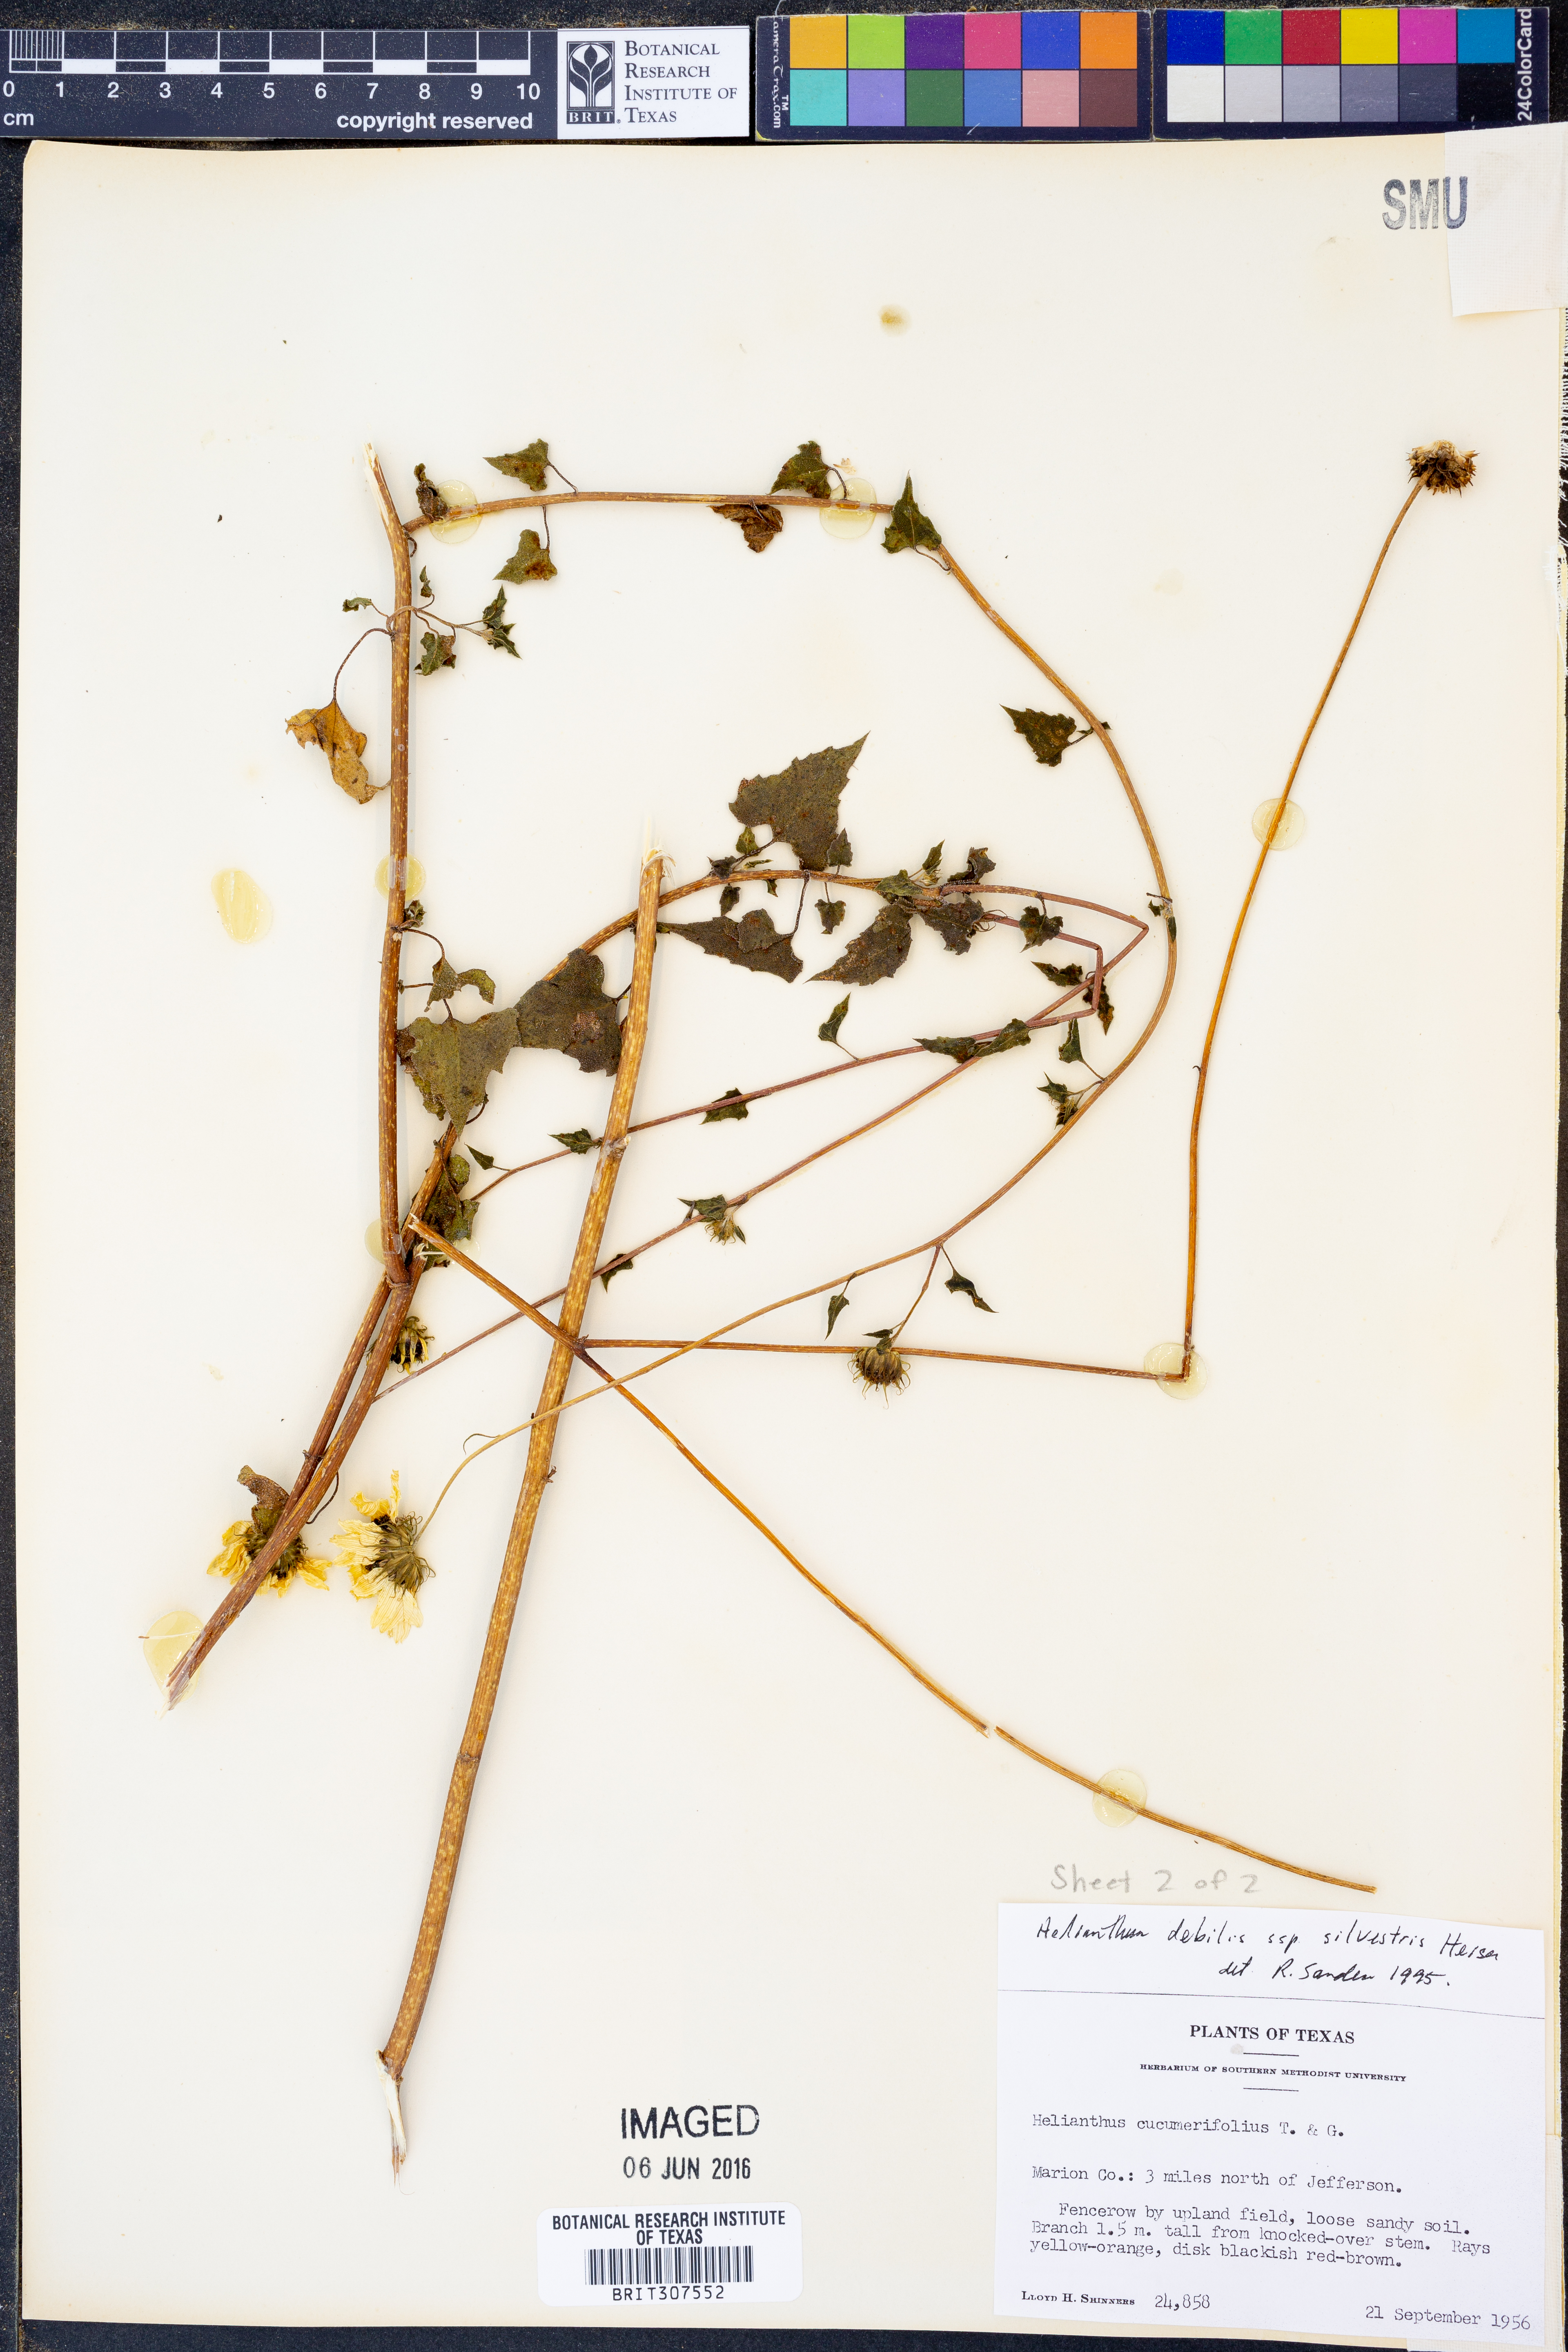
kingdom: Plantae
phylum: Tracheophyta
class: Magnoliopsida
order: Asterales
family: Asteraceae
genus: Helianthus
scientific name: Helianthus debilis
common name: Weak sunflower
